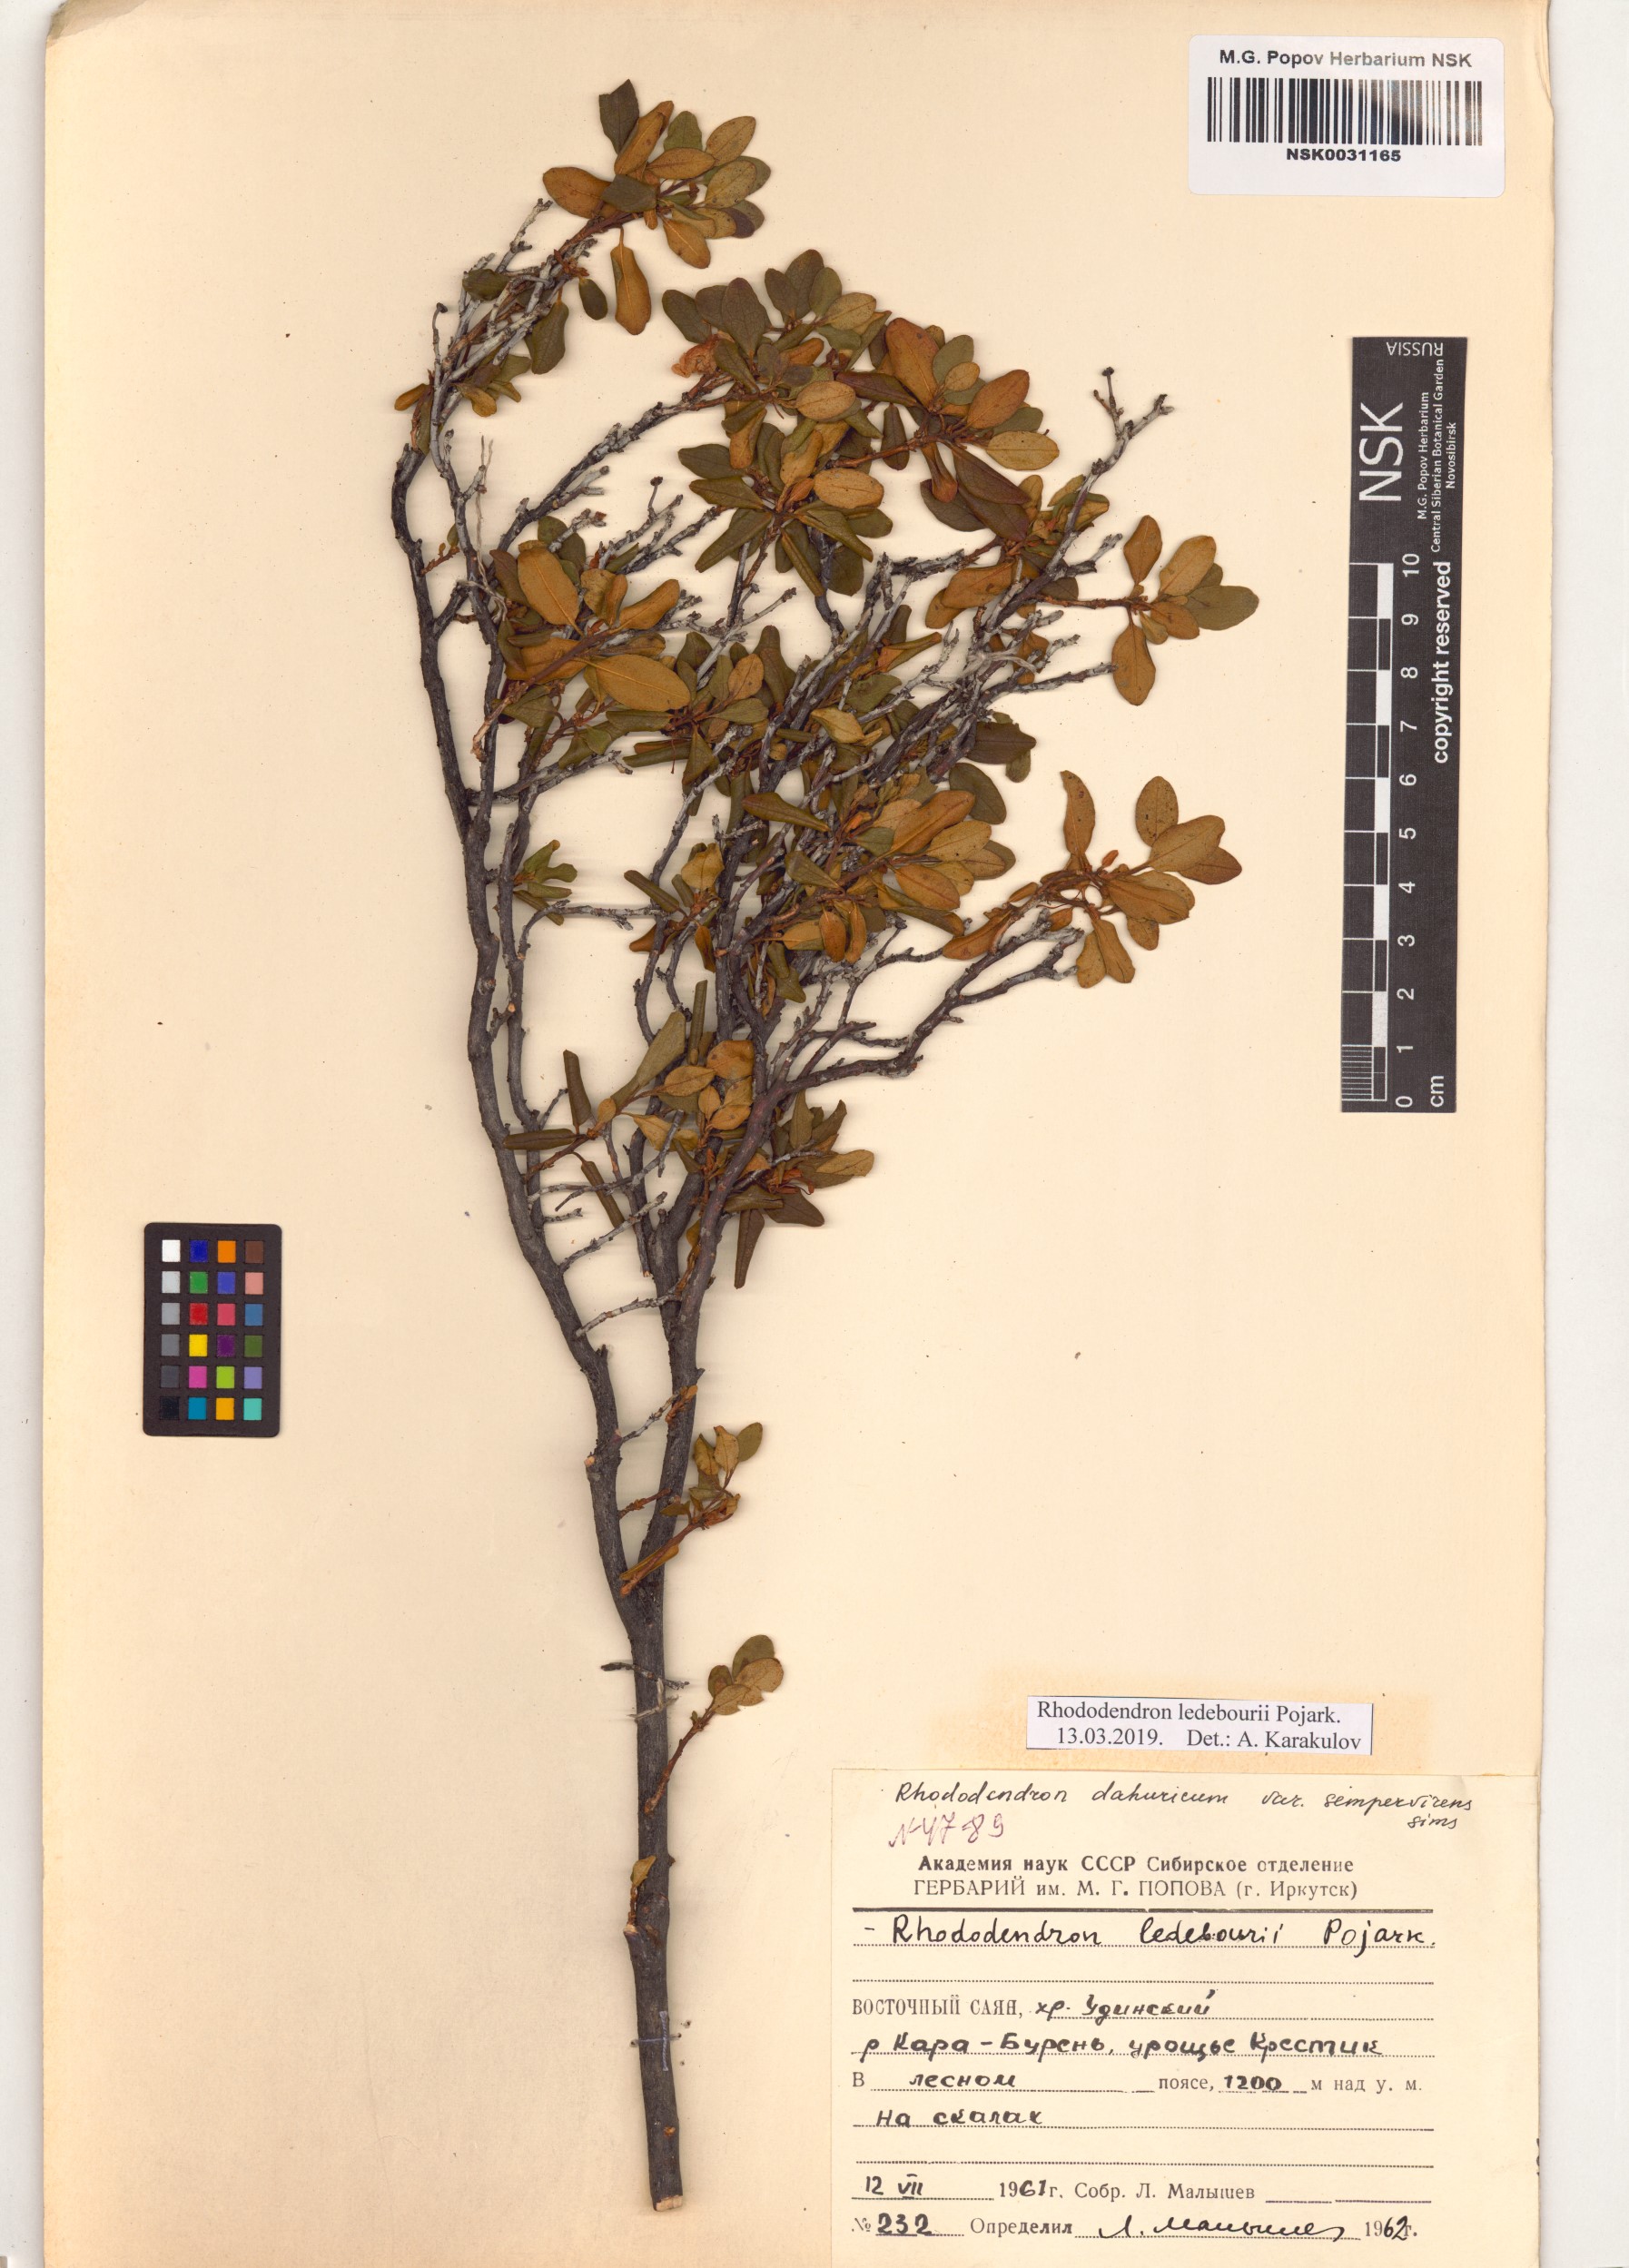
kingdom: Plantae
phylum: Tracheophyta
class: Magnoliopsida
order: Ericales
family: Ericaceae
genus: Rhododendron
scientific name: Rhododendron dauricum
